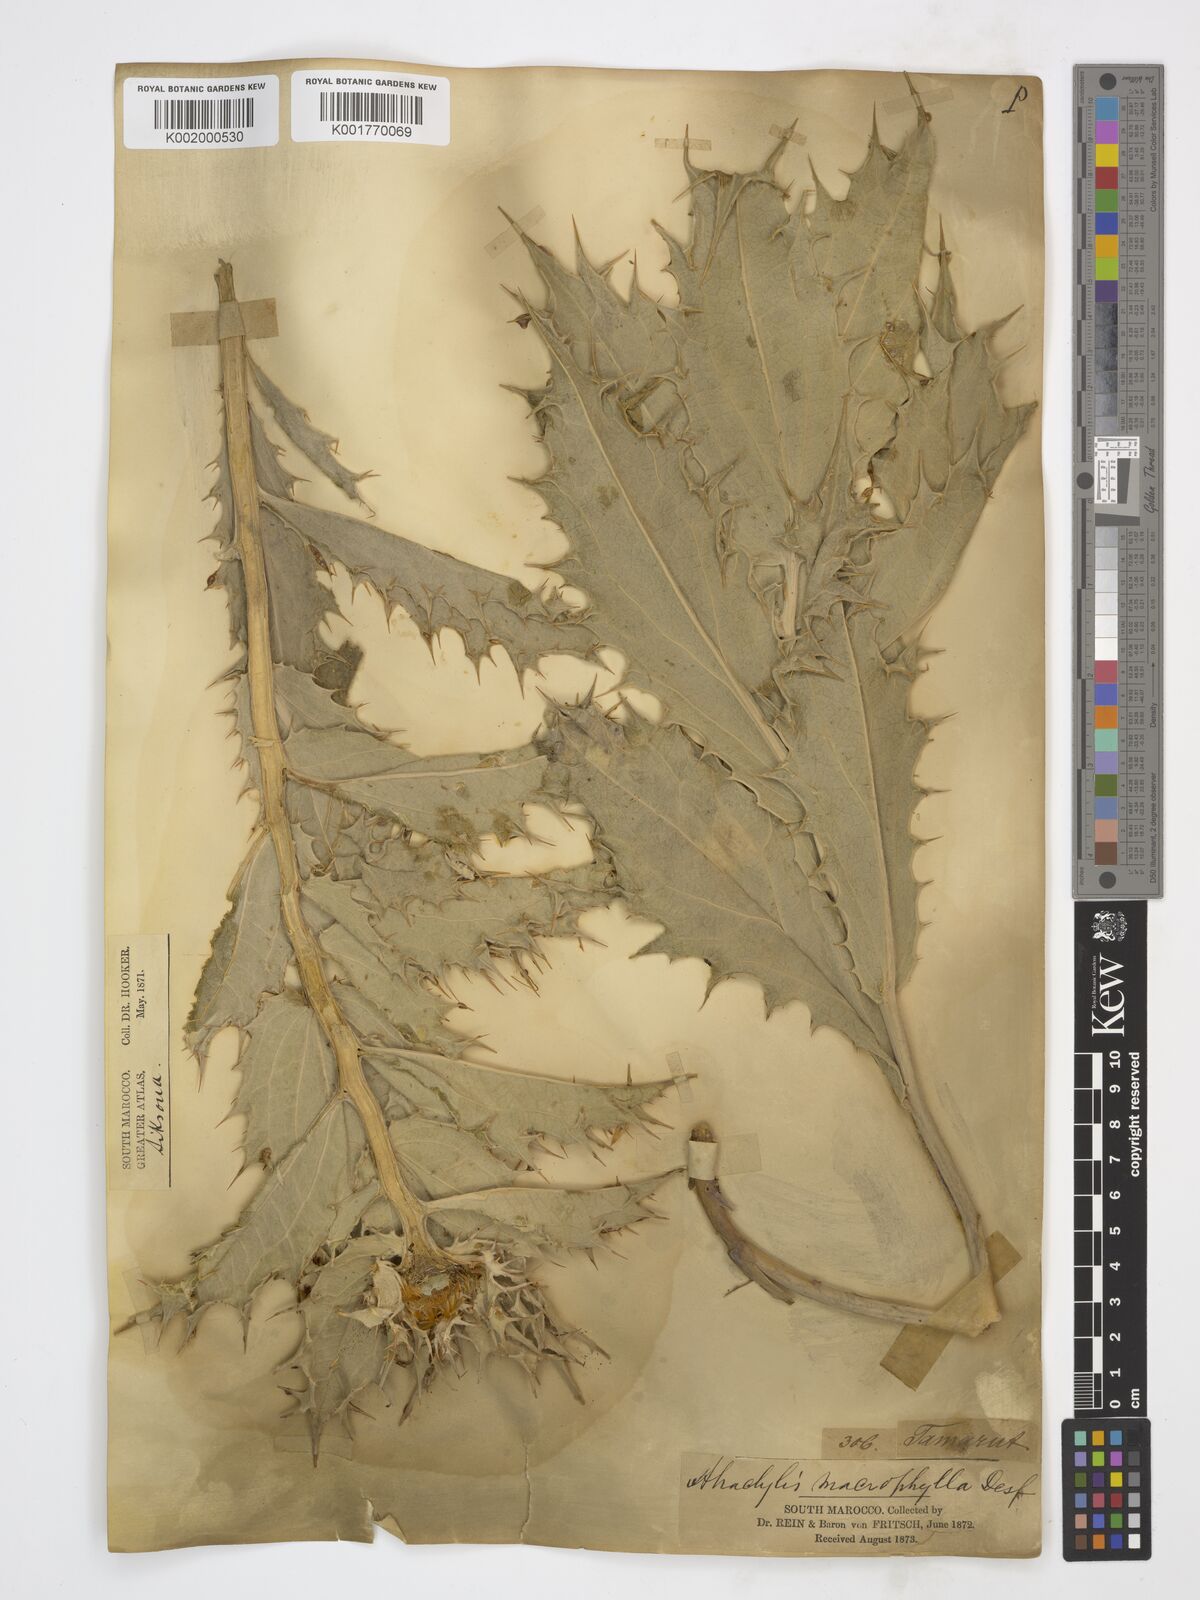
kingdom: Plantae
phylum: Tracheophyta
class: Magnoliopsida
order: Asterales
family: Asteraceae
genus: Chamaeleon
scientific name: Chamaeleon macrophyllus
